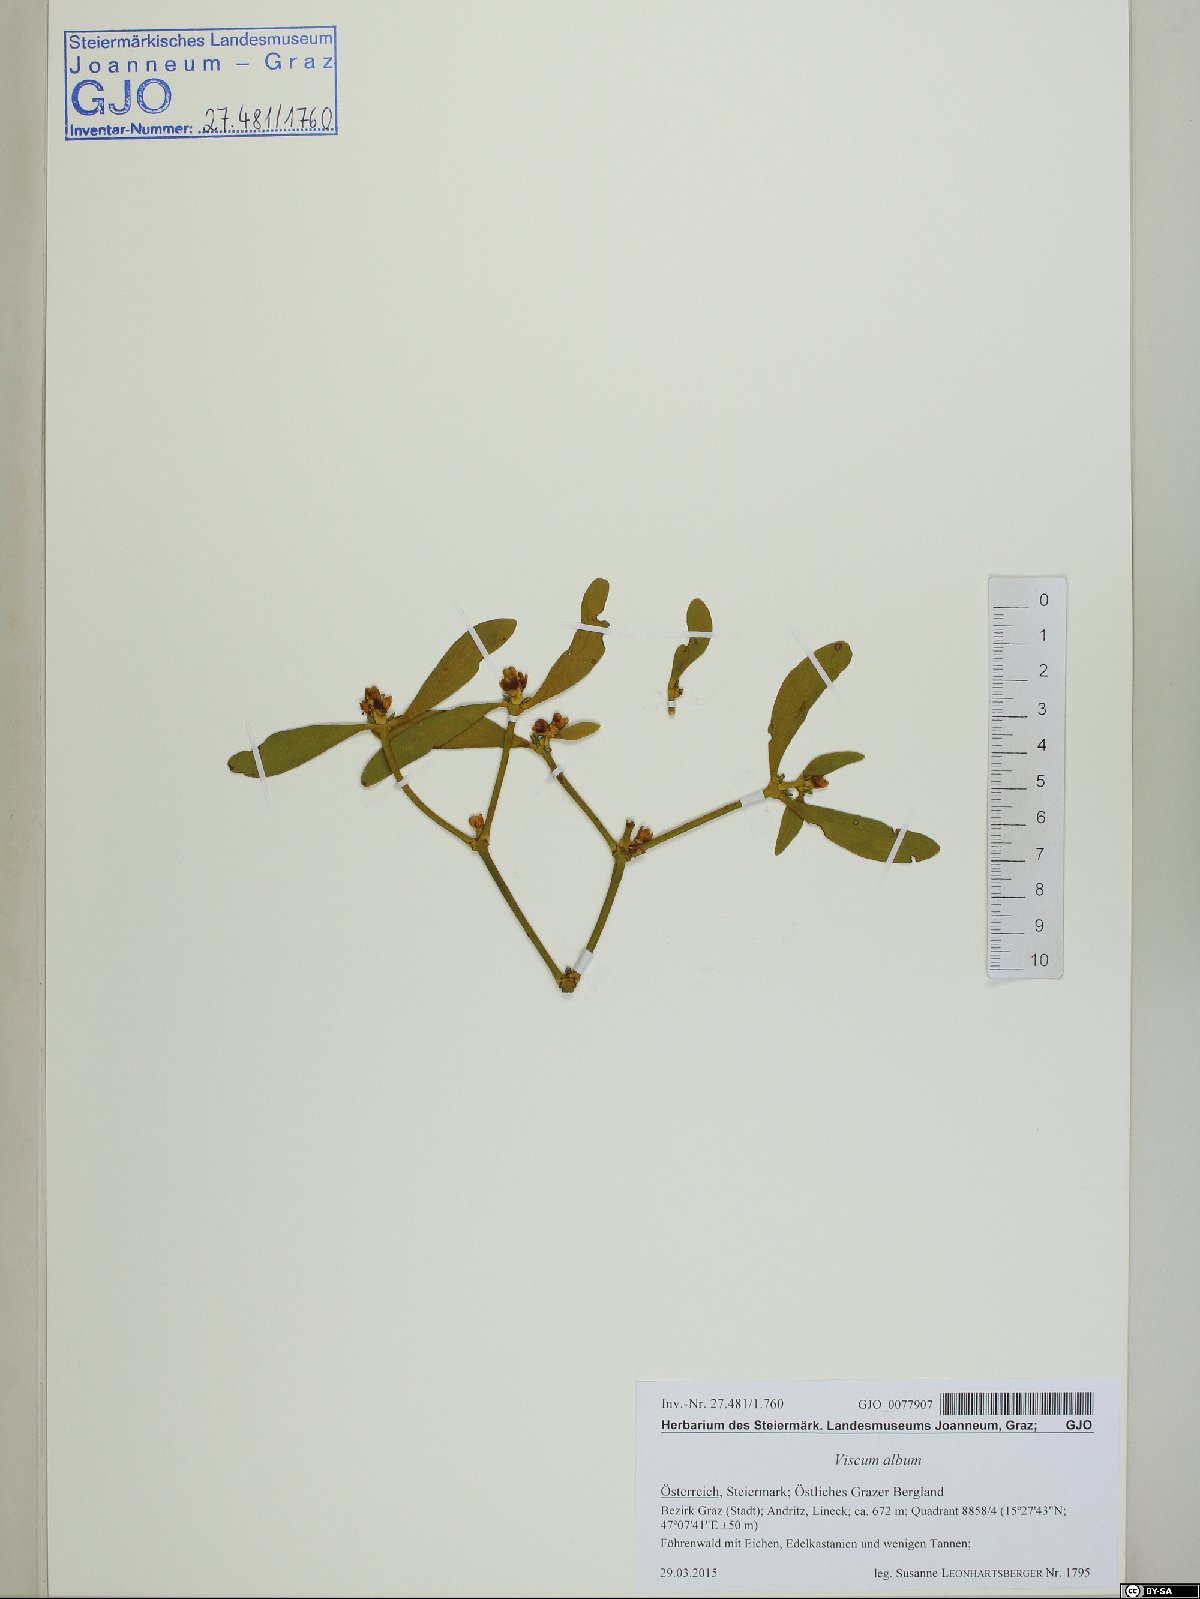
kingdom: Plantae
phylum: Tracheophyta
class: Magnoliopsida
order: Santalales
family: Viscaceae
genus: Viscum
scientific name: Viscum album
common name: Mistletoe
